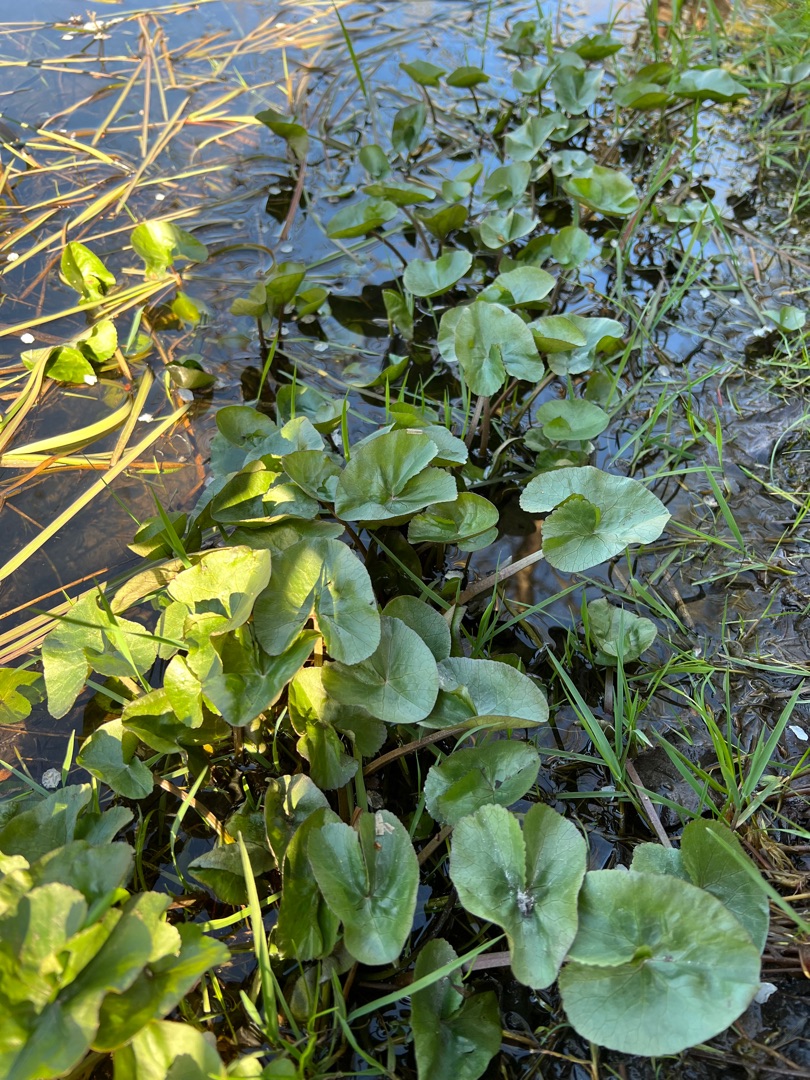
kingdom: Plantae
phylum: Tracheophyta
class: Magnoliopsida
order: Ranunculales
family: Ranunculaceae
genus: Caltha
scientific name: Caltha palustris
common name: Eng-kabbeleje
